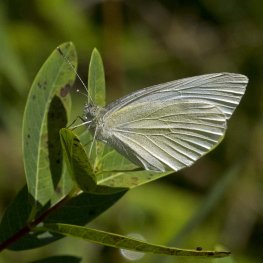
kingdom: Animalia
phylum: Arthropoda
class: Insecta
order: Lepidoptera
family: Pieridae
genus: Pieris
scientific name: Pieris rapae
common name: Cabbage White
